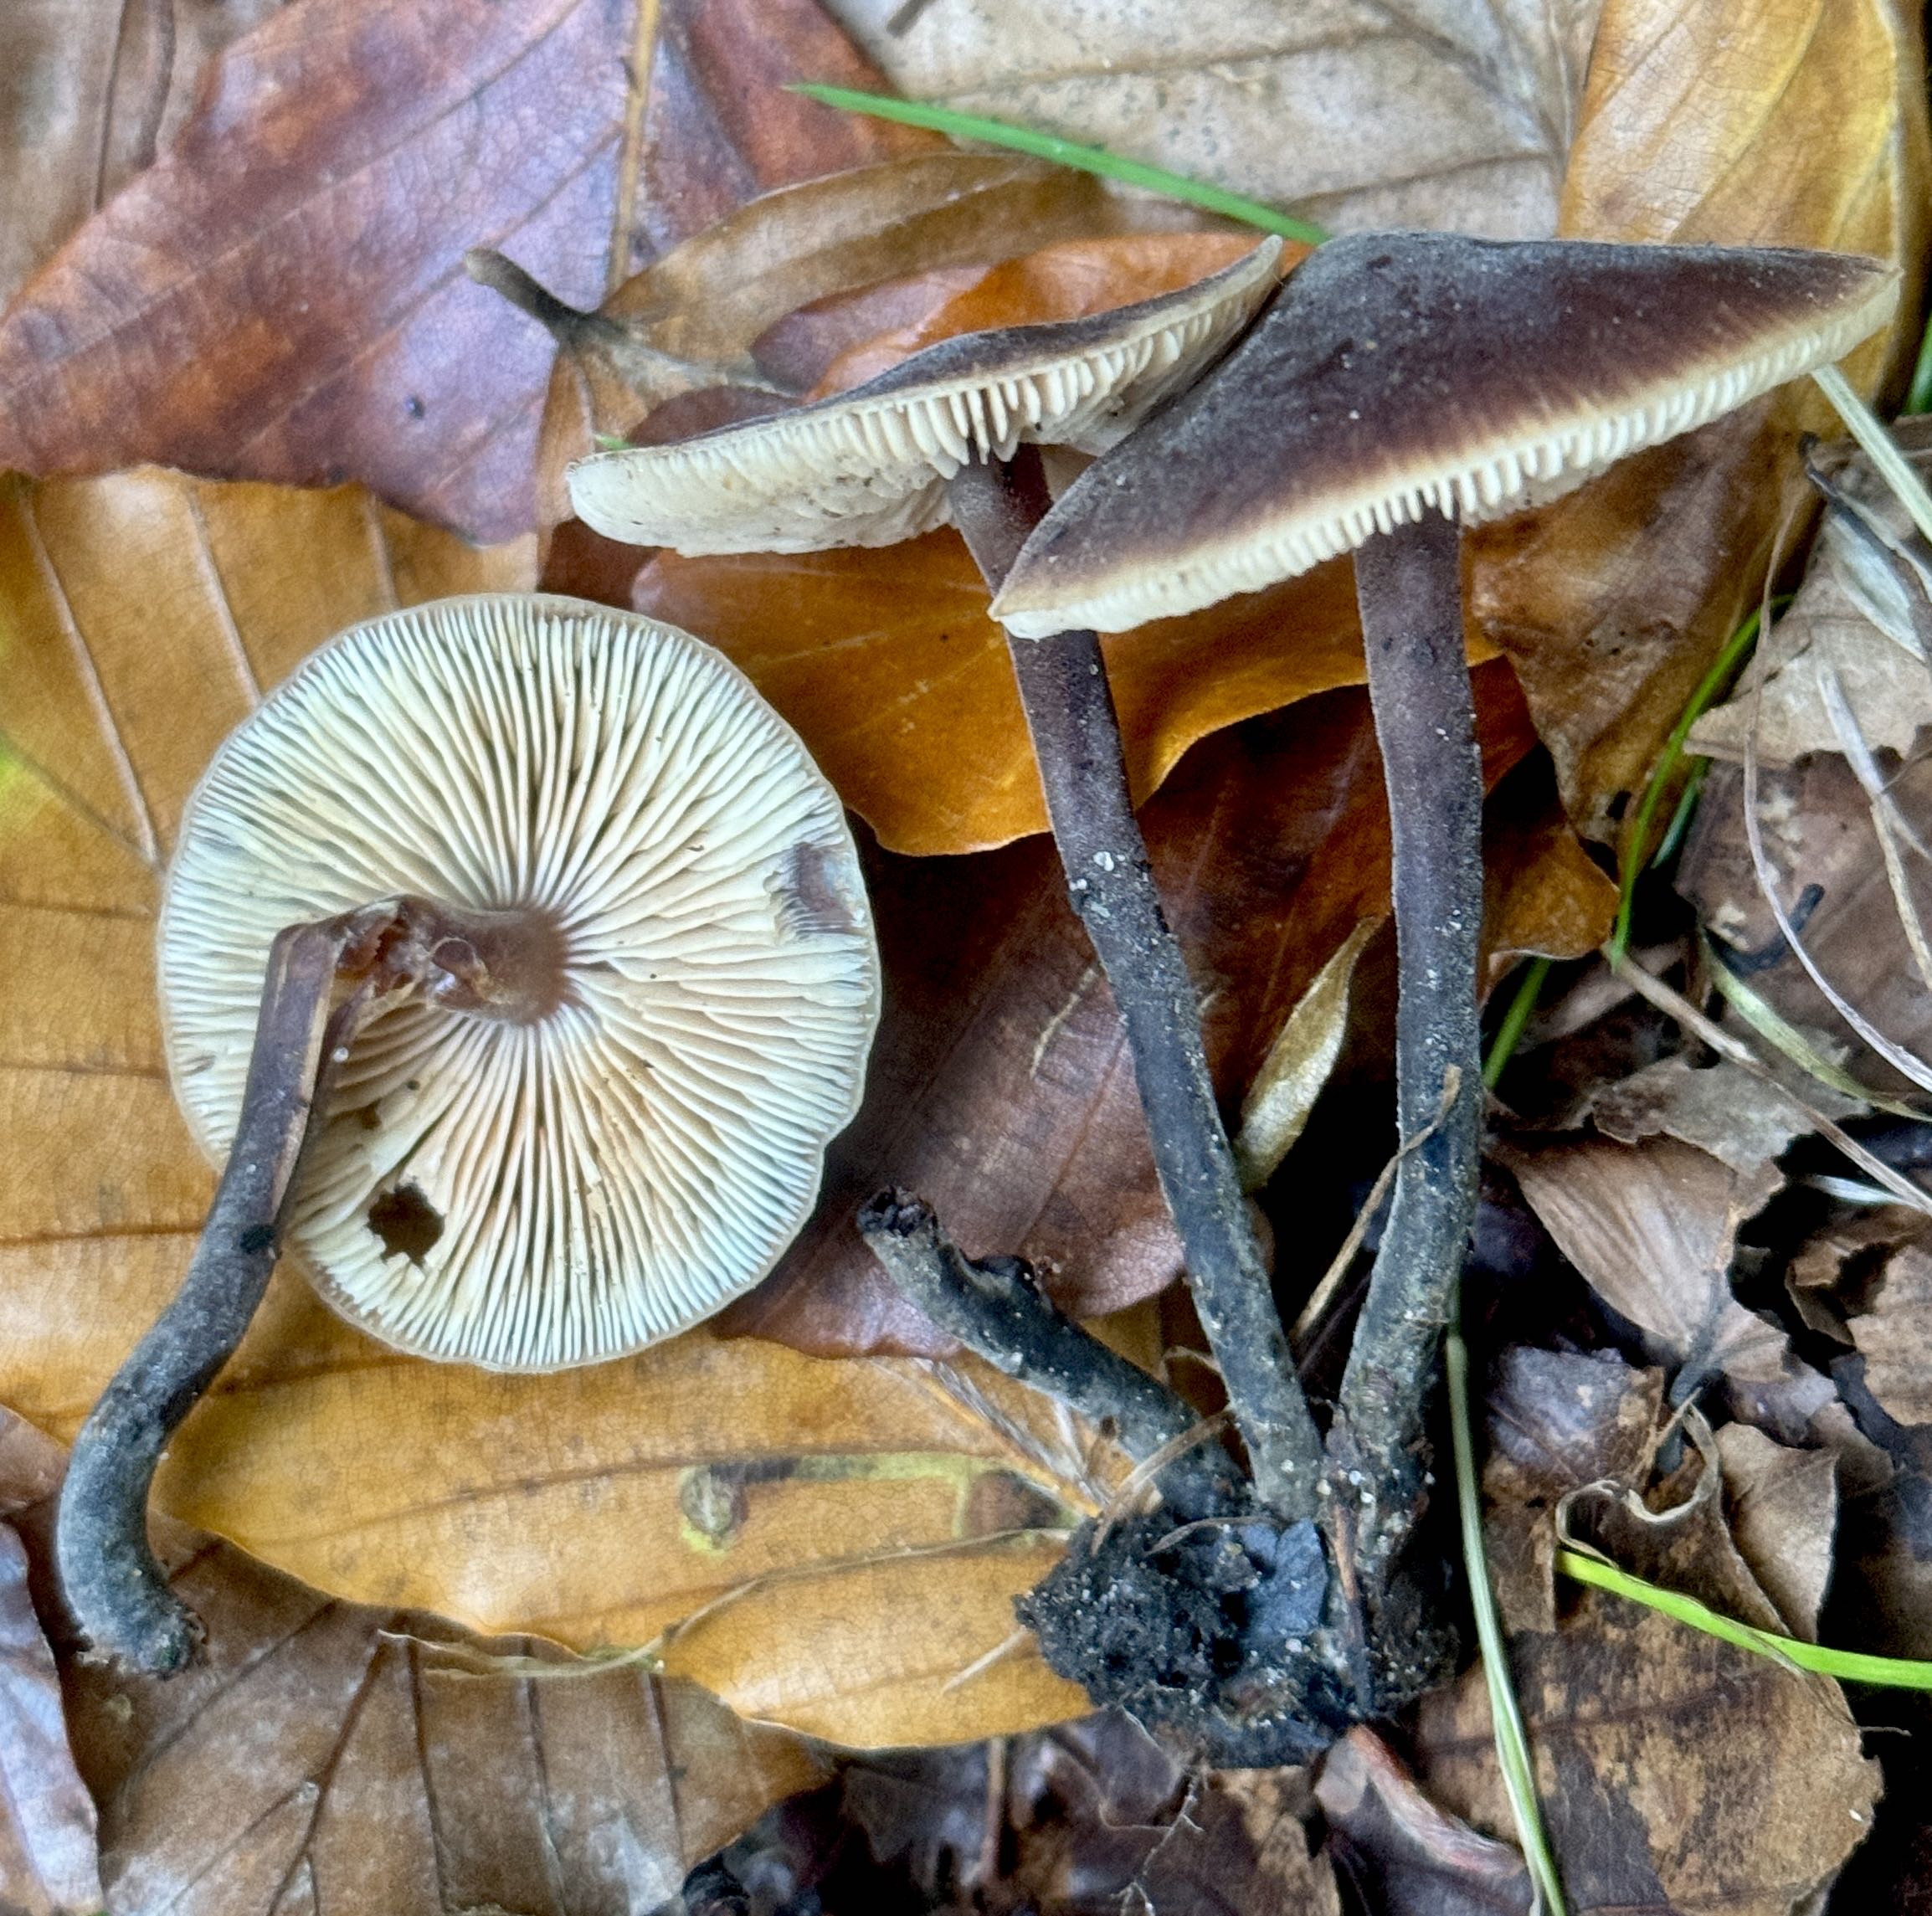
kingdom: Fungi
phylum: Basidiomycota
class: Agaricomycetes
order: Agaricales
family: Macrocystidiaceae
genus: Macrocystidia
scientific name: Macrocystidia cucumis
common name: agurkehat
